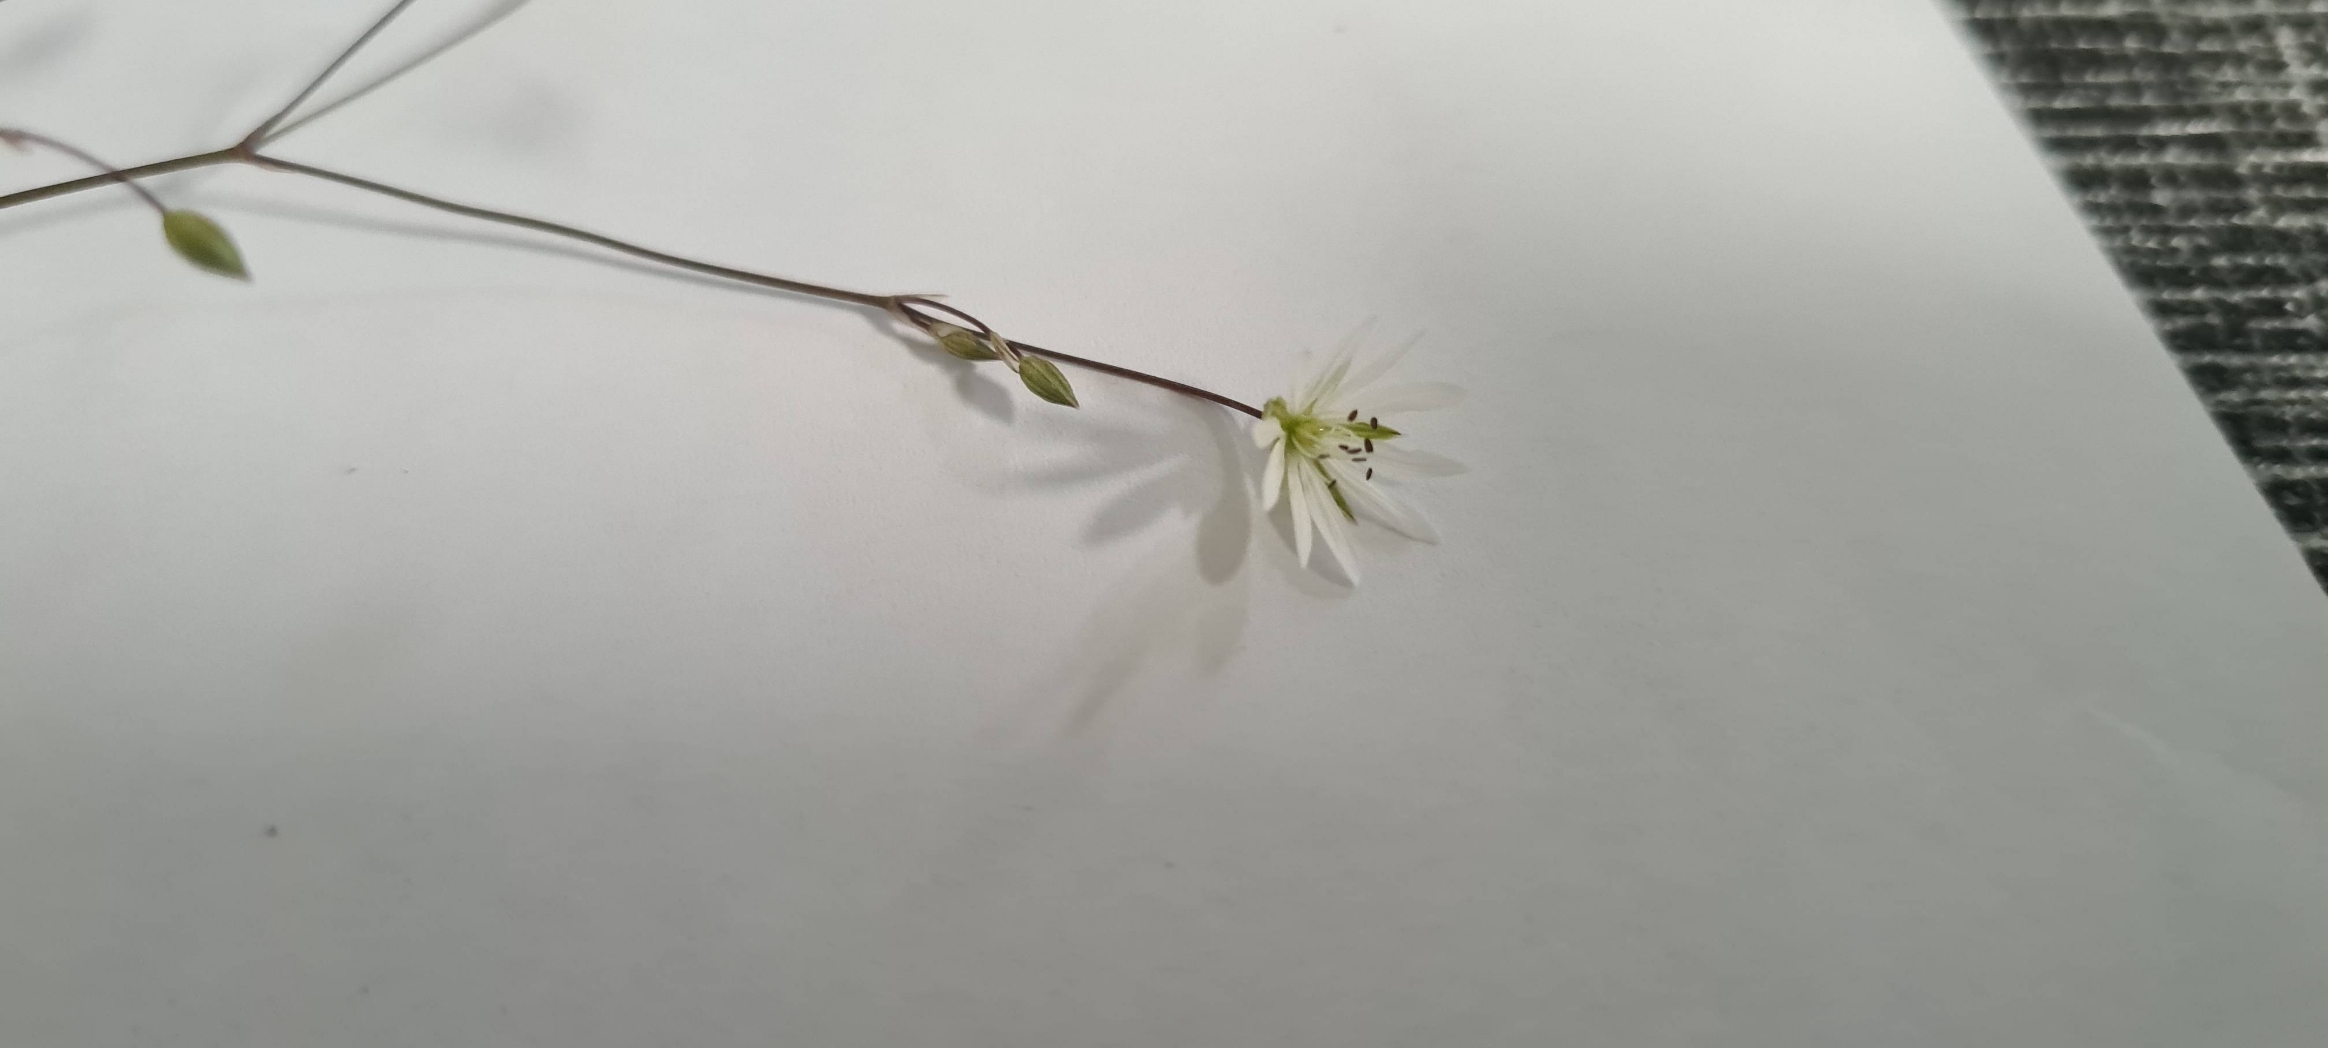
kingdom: Plantae
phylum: Tracheophyta
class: Magnoliopsida
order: Caryophyllales
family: Caryophyllaceae
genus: Stellaria
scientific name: Stellaria graminea
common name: Græsbladet fladstjerne
